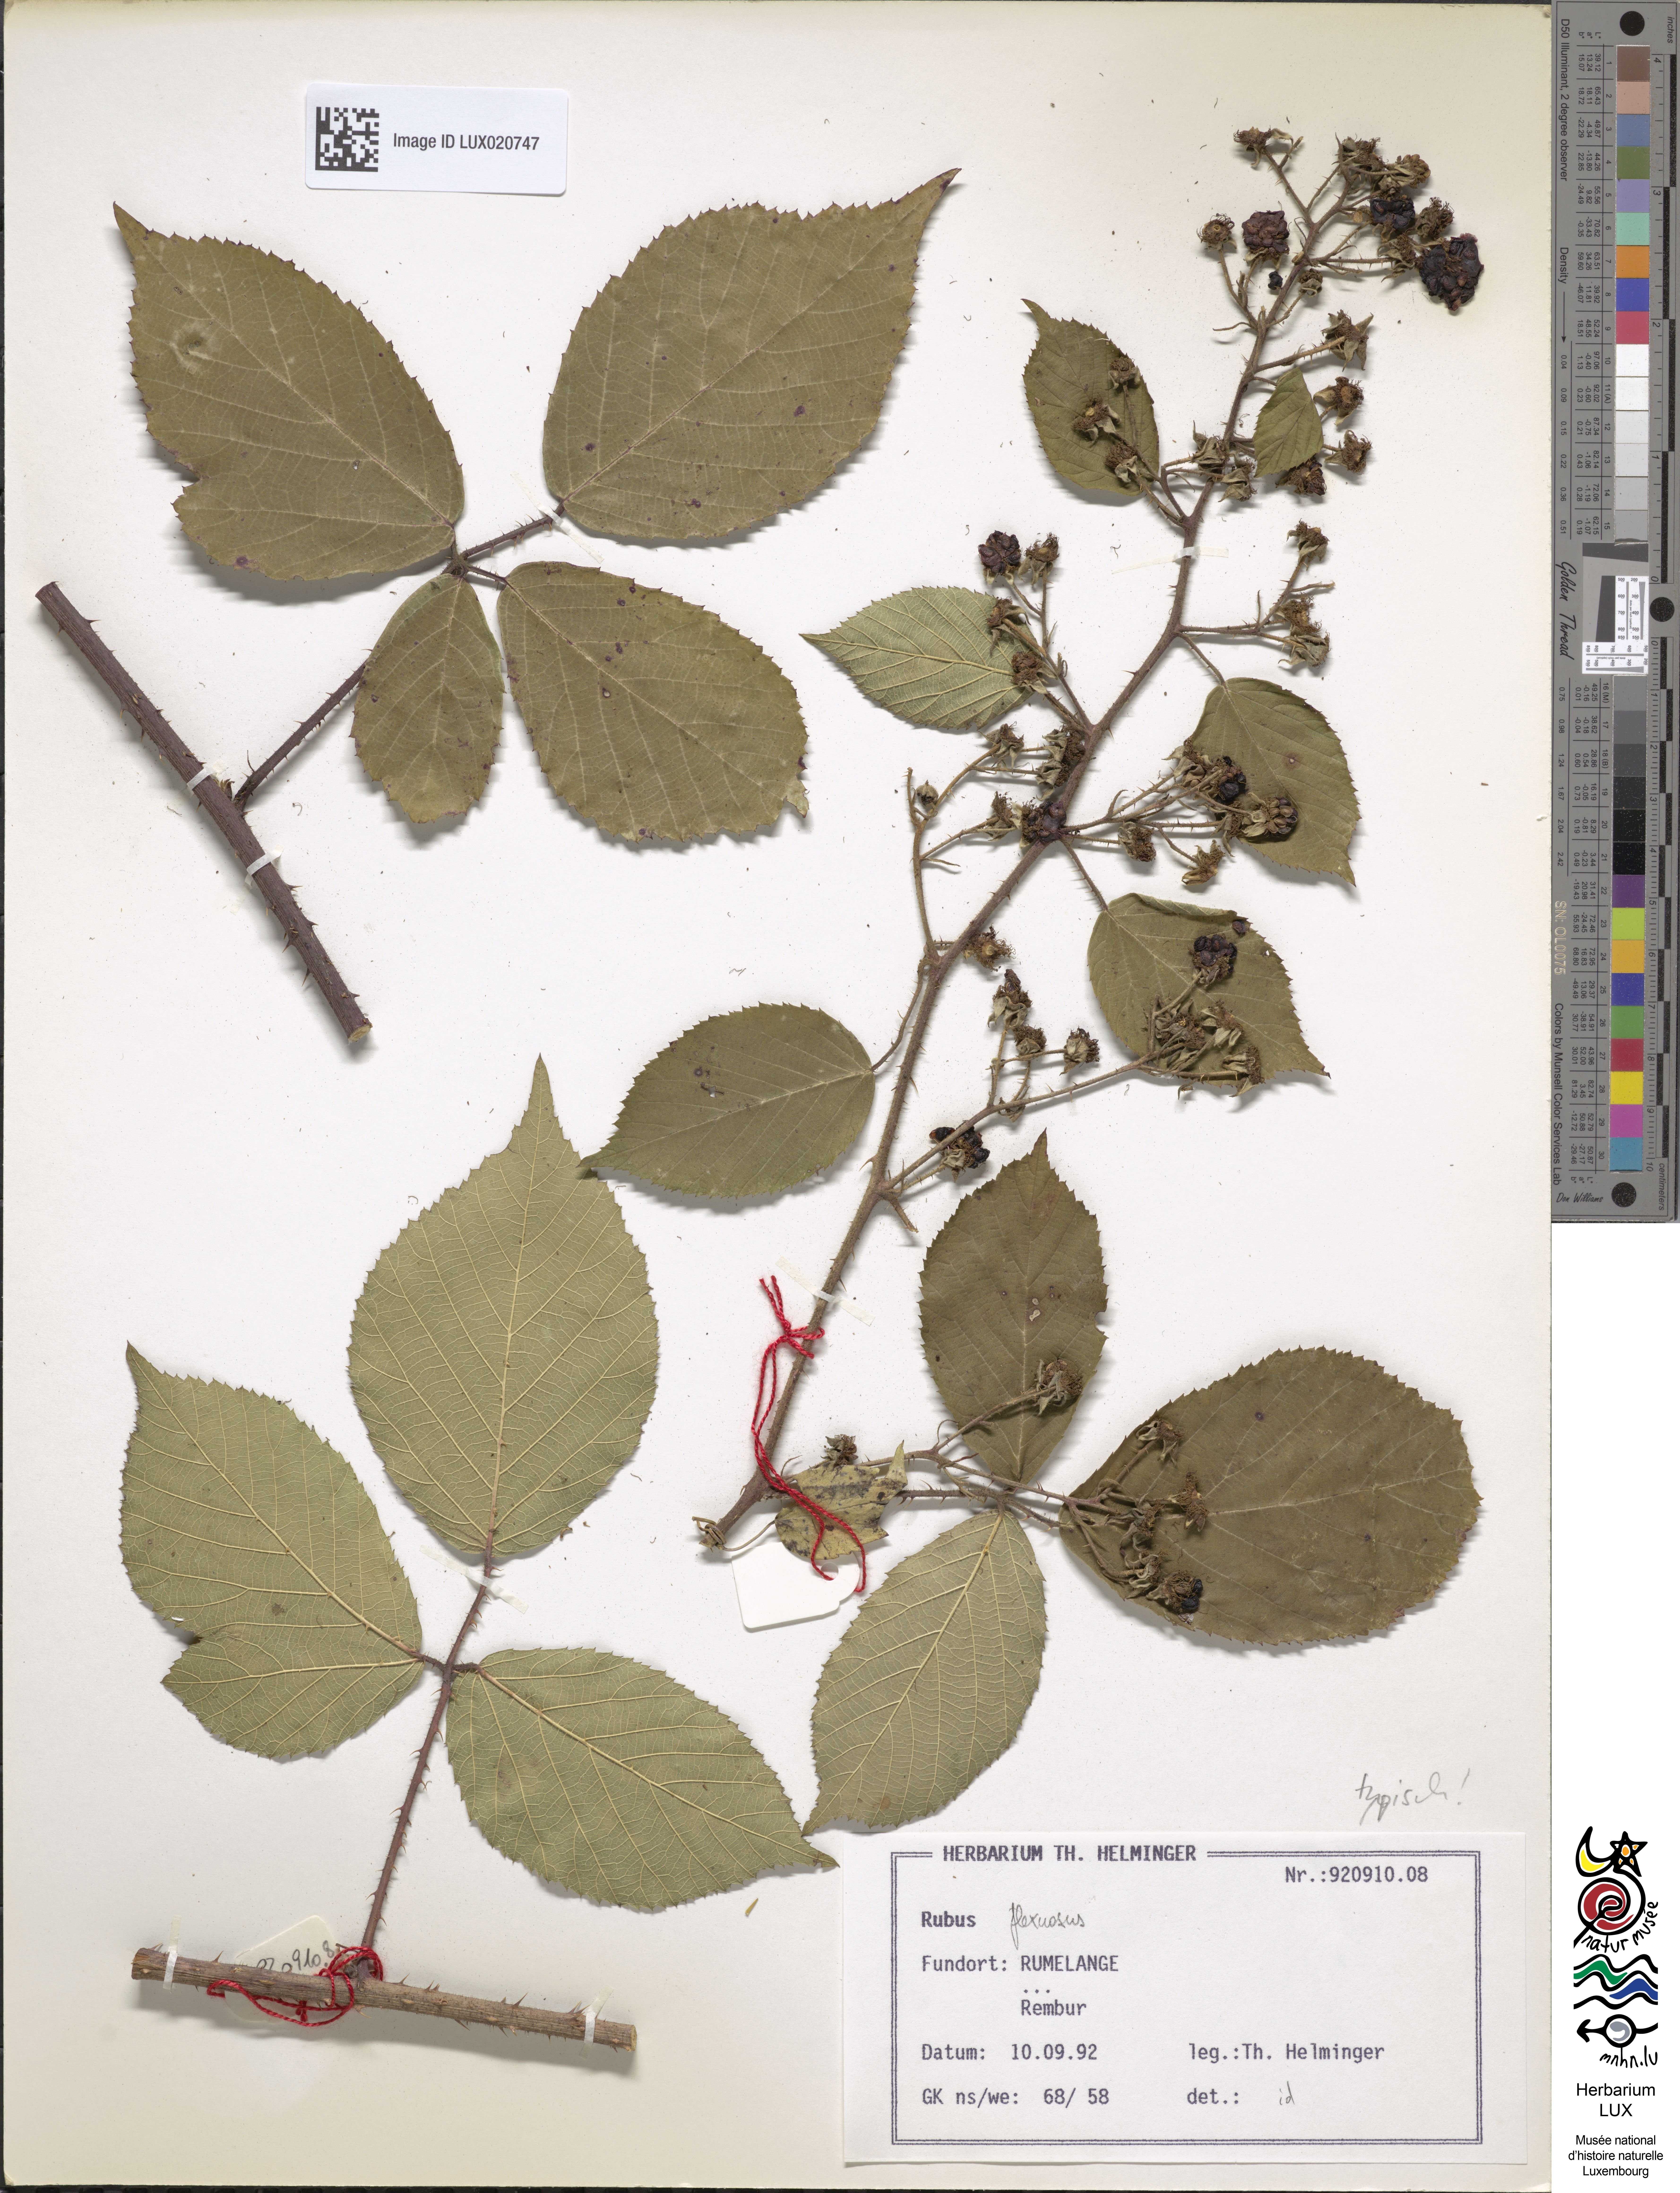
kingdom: Plantae
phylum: Tracheophyta
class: Magnoliopsida
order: Rosales
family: Rosaceae
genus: Rubus
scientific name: Rubus saltuum
